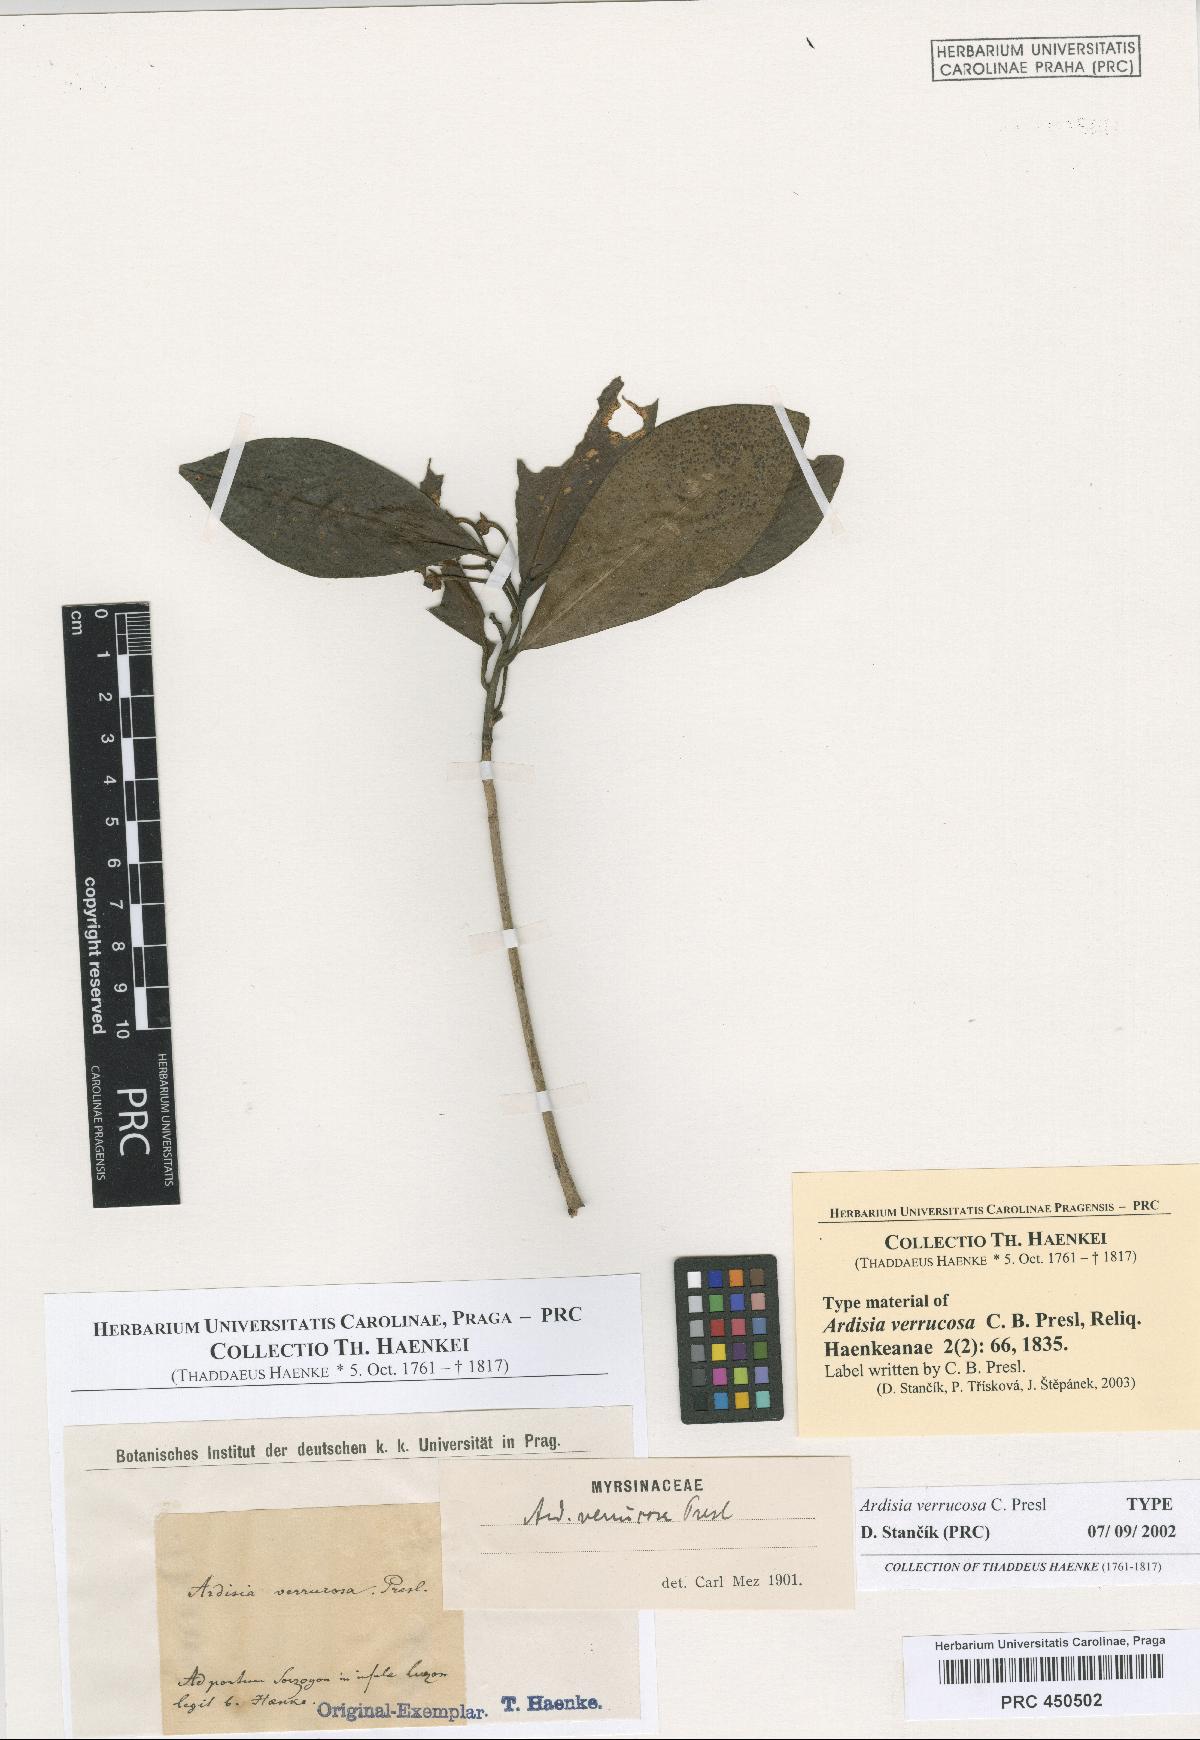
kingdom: Plantae
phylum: Tracheophyta
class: Magnoliopsida
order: Ericales
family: Primulaceae
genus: Ardisia
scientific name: Ardisia elliptica
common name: Shoebutton
